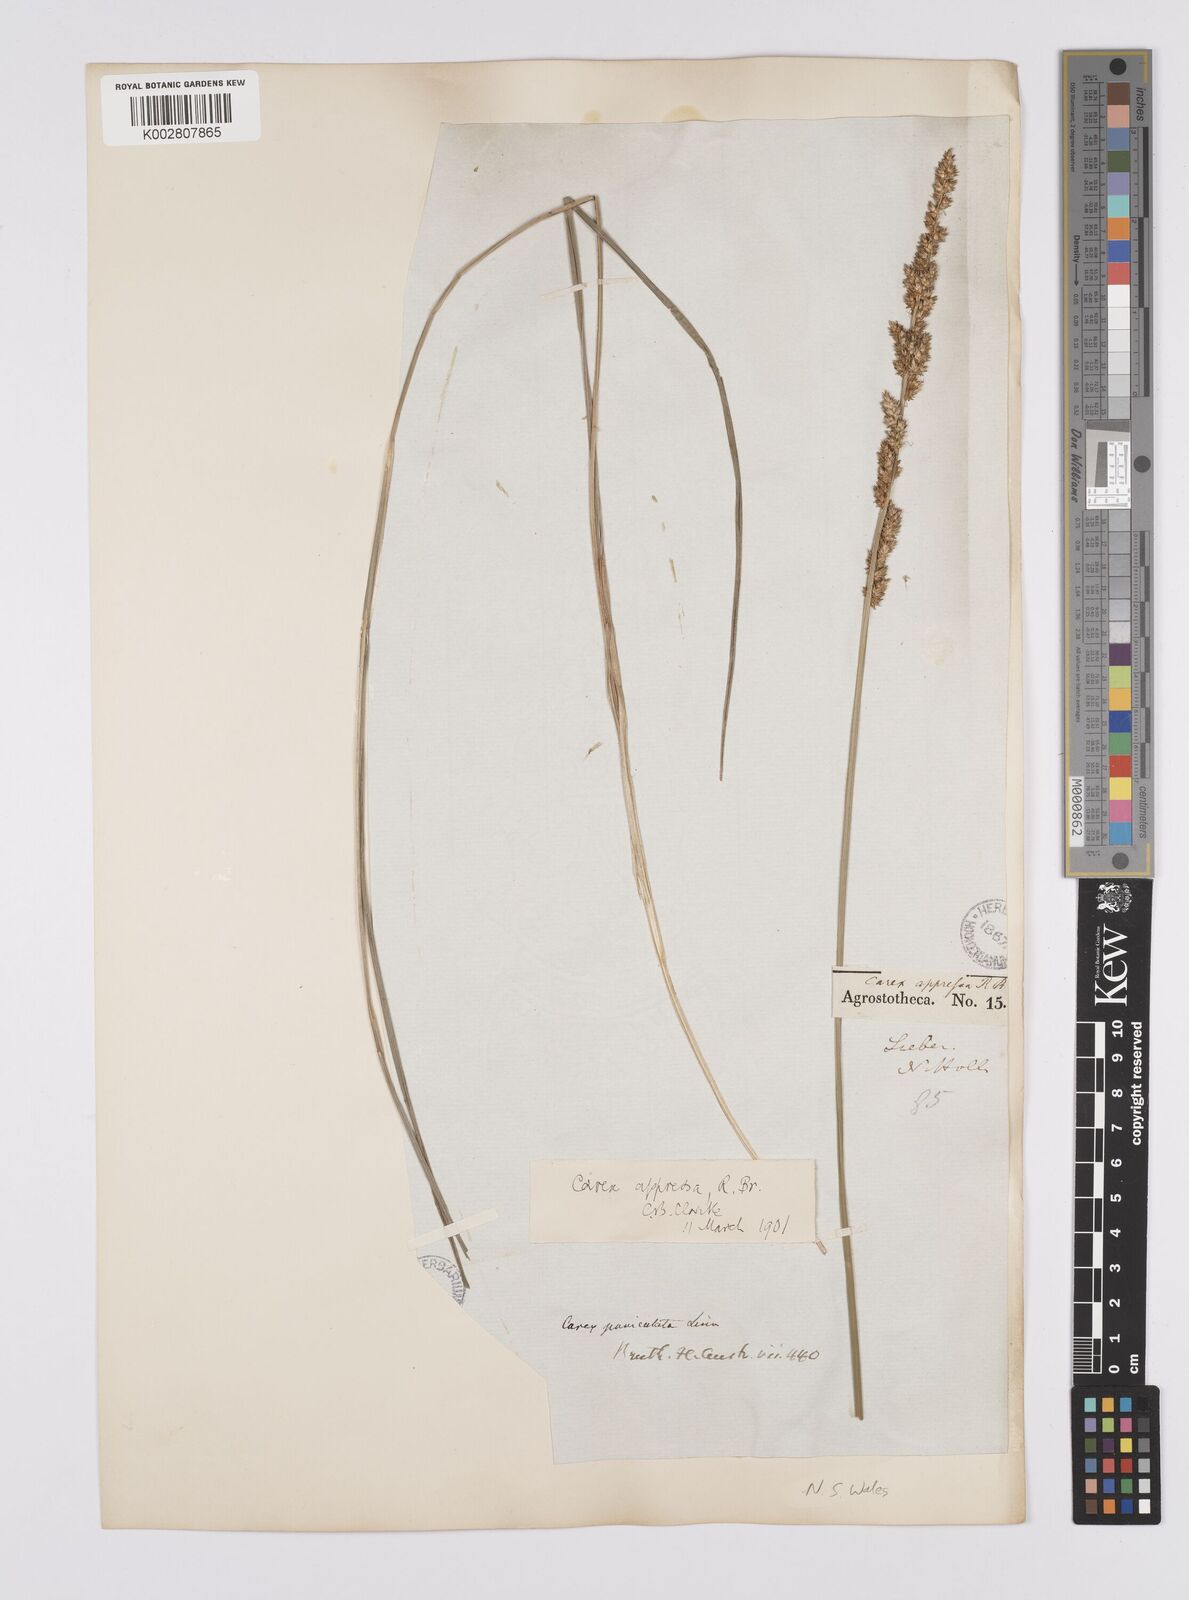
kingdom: Plantae
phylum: Tracheophyta
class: Liliopsida
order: Poales
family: Cyperaceae
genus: Carex
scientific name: Carex appressa
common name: Tussock sedge
